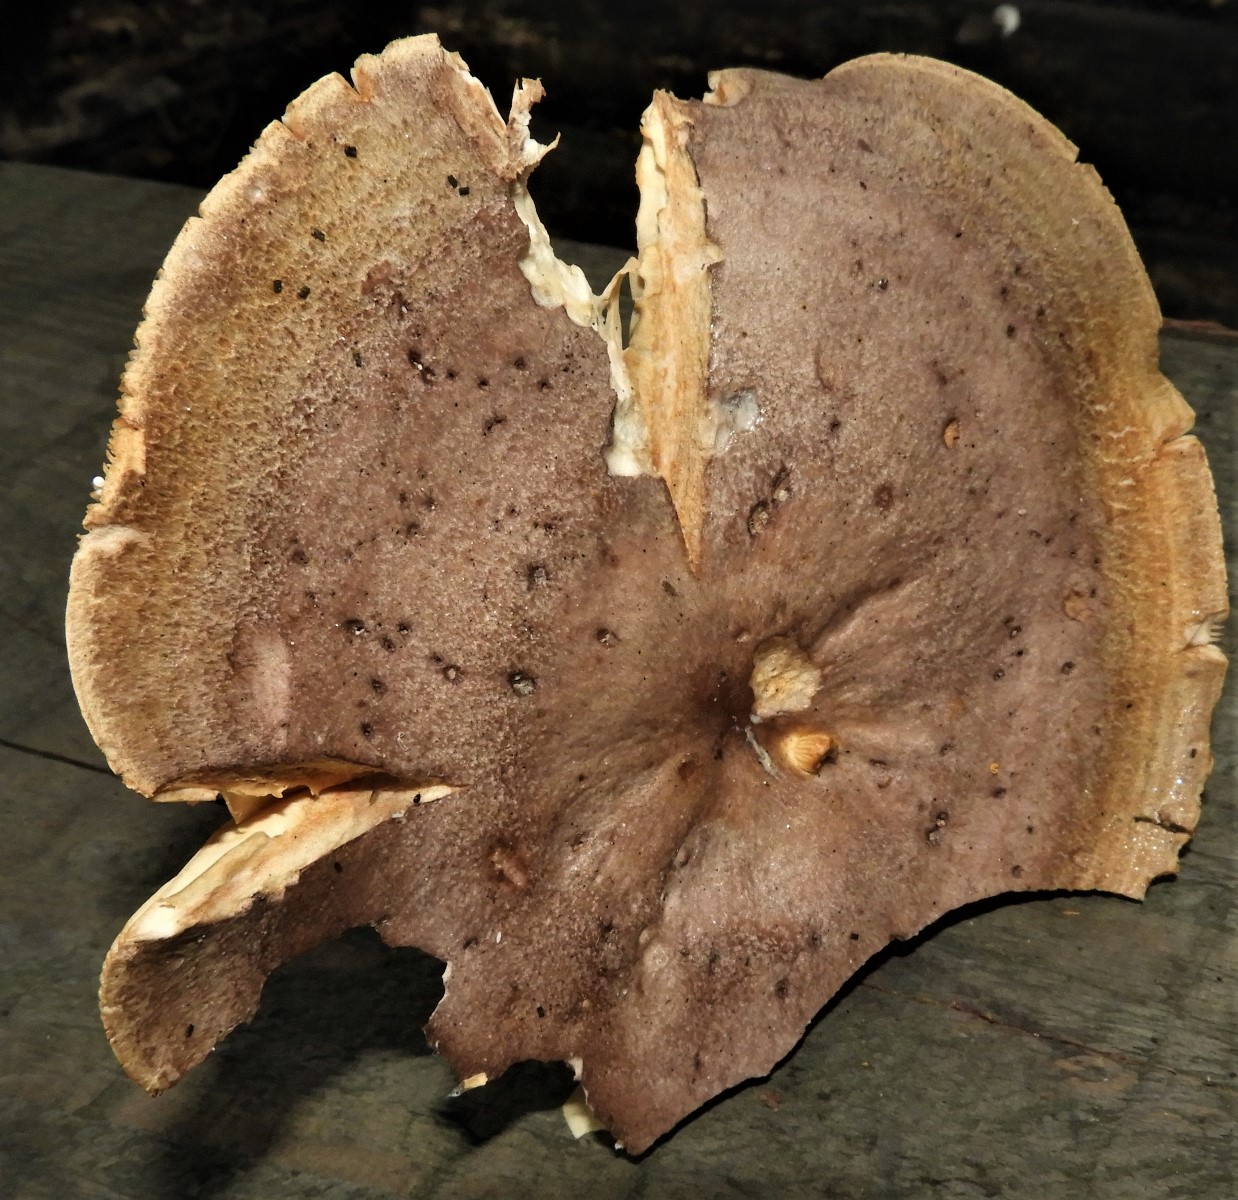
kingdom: Fungi
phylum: Basidiomycota
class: Agaricomycetes
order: Russulales
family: Russulaceae
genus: Lactarius
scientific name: Lactarius circellatus
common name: avnbøg-mælkehat
